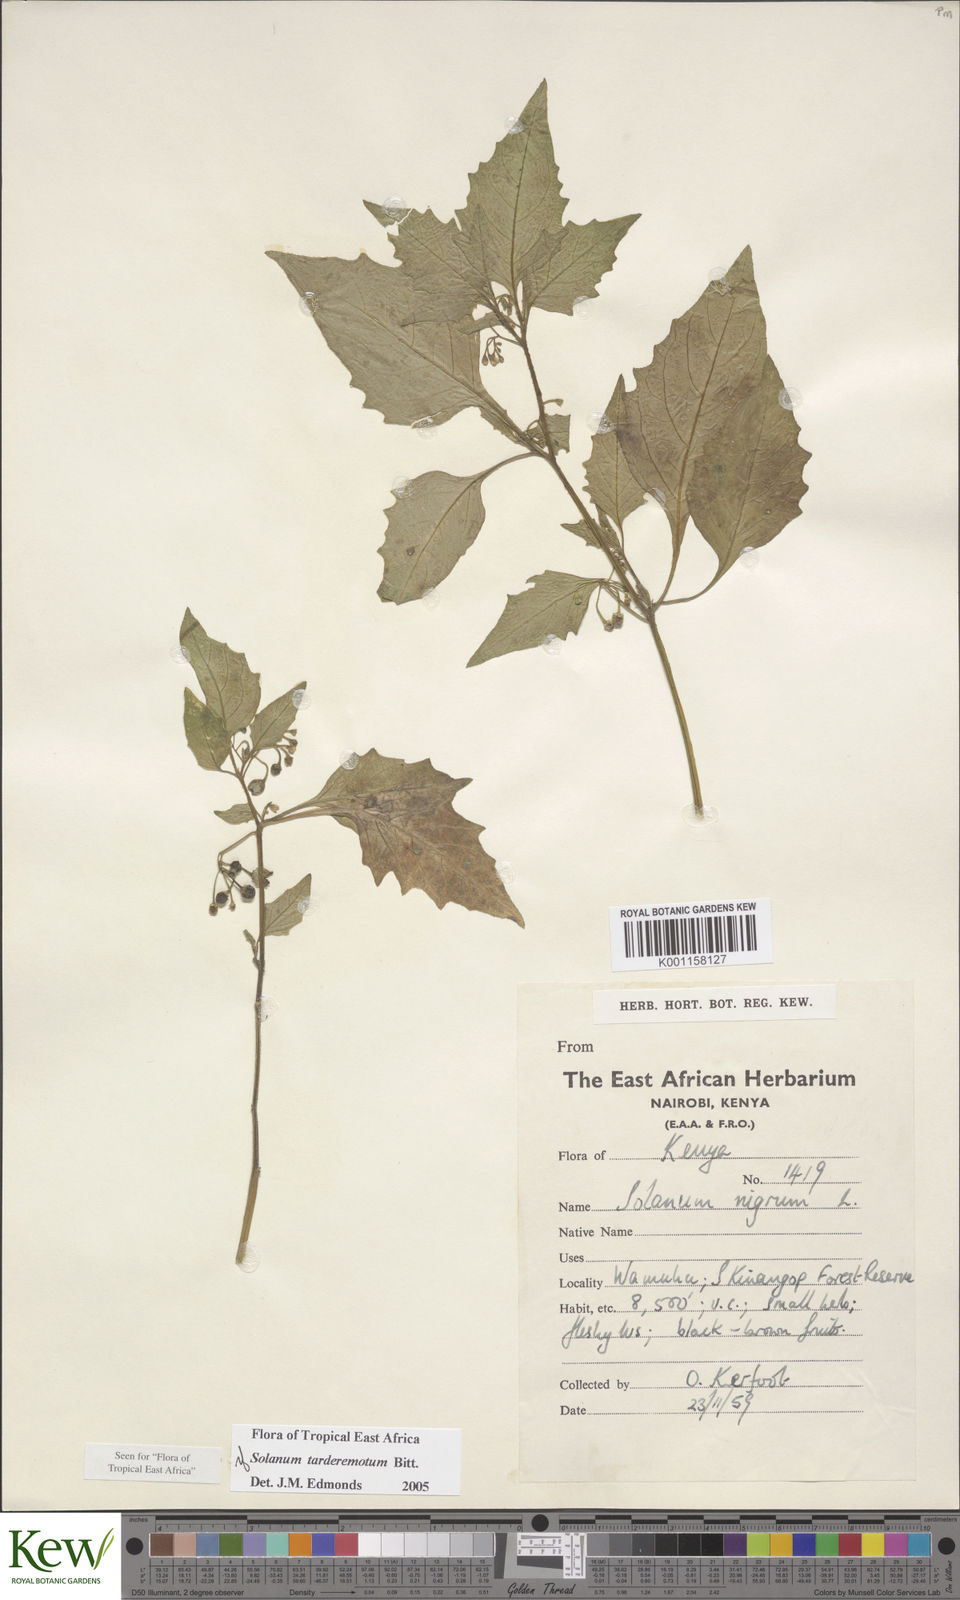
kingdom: Plantae
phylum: Tracheophyta
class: Magnoliopsida
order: Solanales
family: Solanaceae
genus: Solanum
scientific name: Solanum tarderemotum
